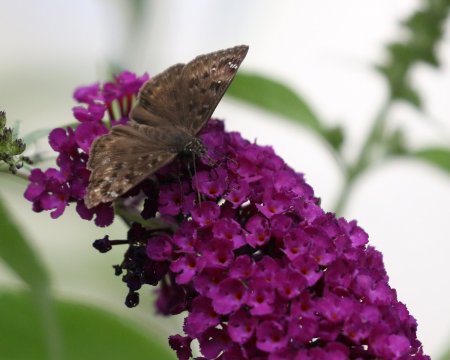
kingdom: Animalia
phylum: Arthropoda
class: Insecta
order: Lepidoptera
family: Hesperiidae
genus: Gesta
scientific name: Gesta
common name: Horace's Duskywing
